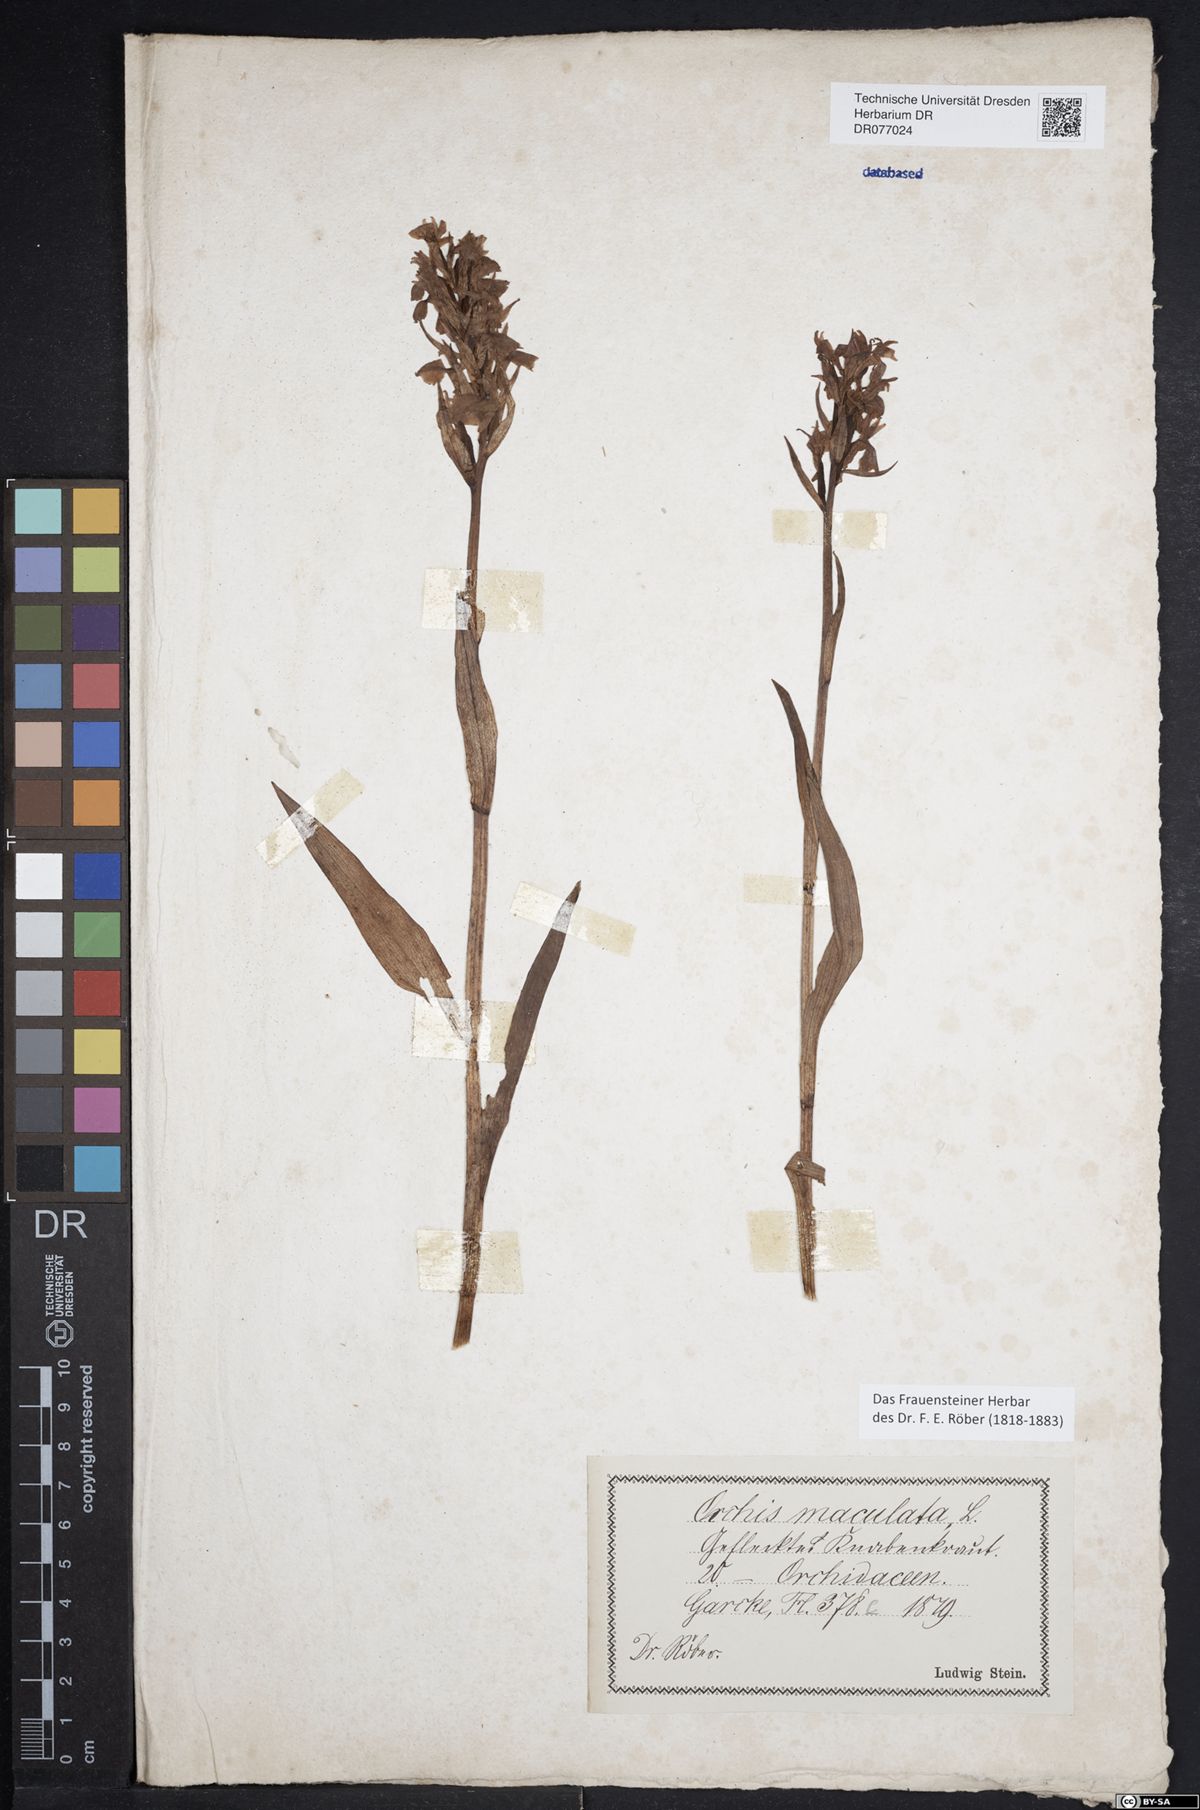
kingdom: Plantae
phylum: Tracheophyta
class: Liliopsida
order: Asparagales
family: Orchidaceae
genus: Dactylorhiza
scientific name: Dactylorhiza maculata
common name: Heath spotted-orchid
